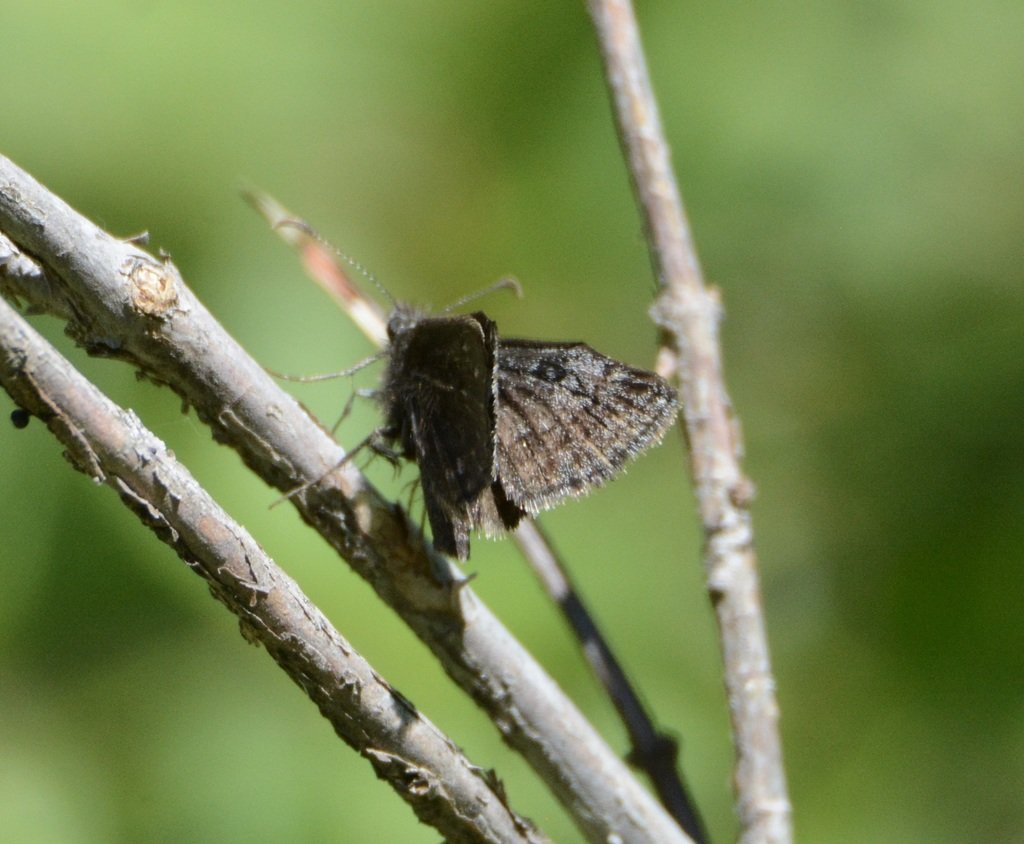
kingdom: Animalia
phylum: Arthropoda
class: Insecta
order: Lepidoptera
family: Hesperiidae
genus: Erynnis
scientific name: Erynnis brizo
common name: Sleepy Duskywing
